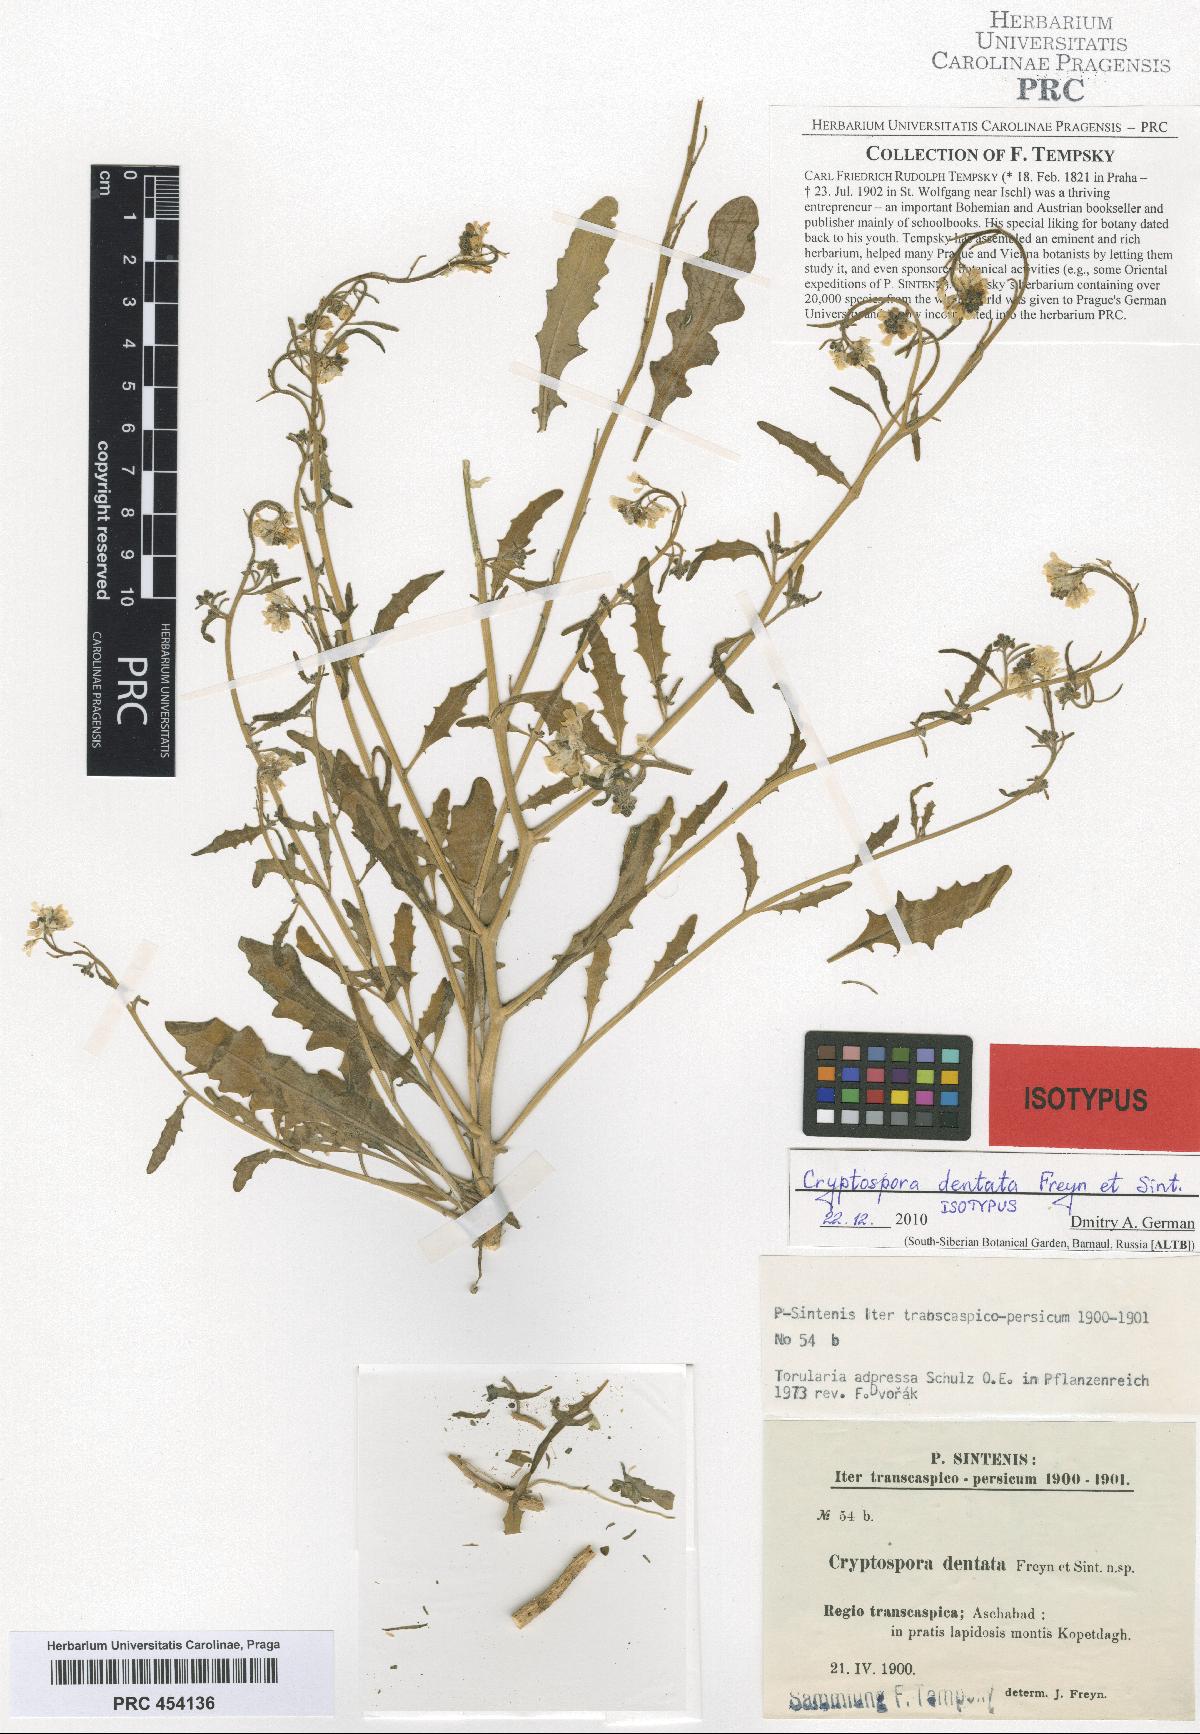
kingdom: Plantae
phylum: Tracheophyta
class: Magnoliopsida
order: Brassicales
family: Brassicaceae
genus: Neotorularia
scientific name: Neotorularia dentata
